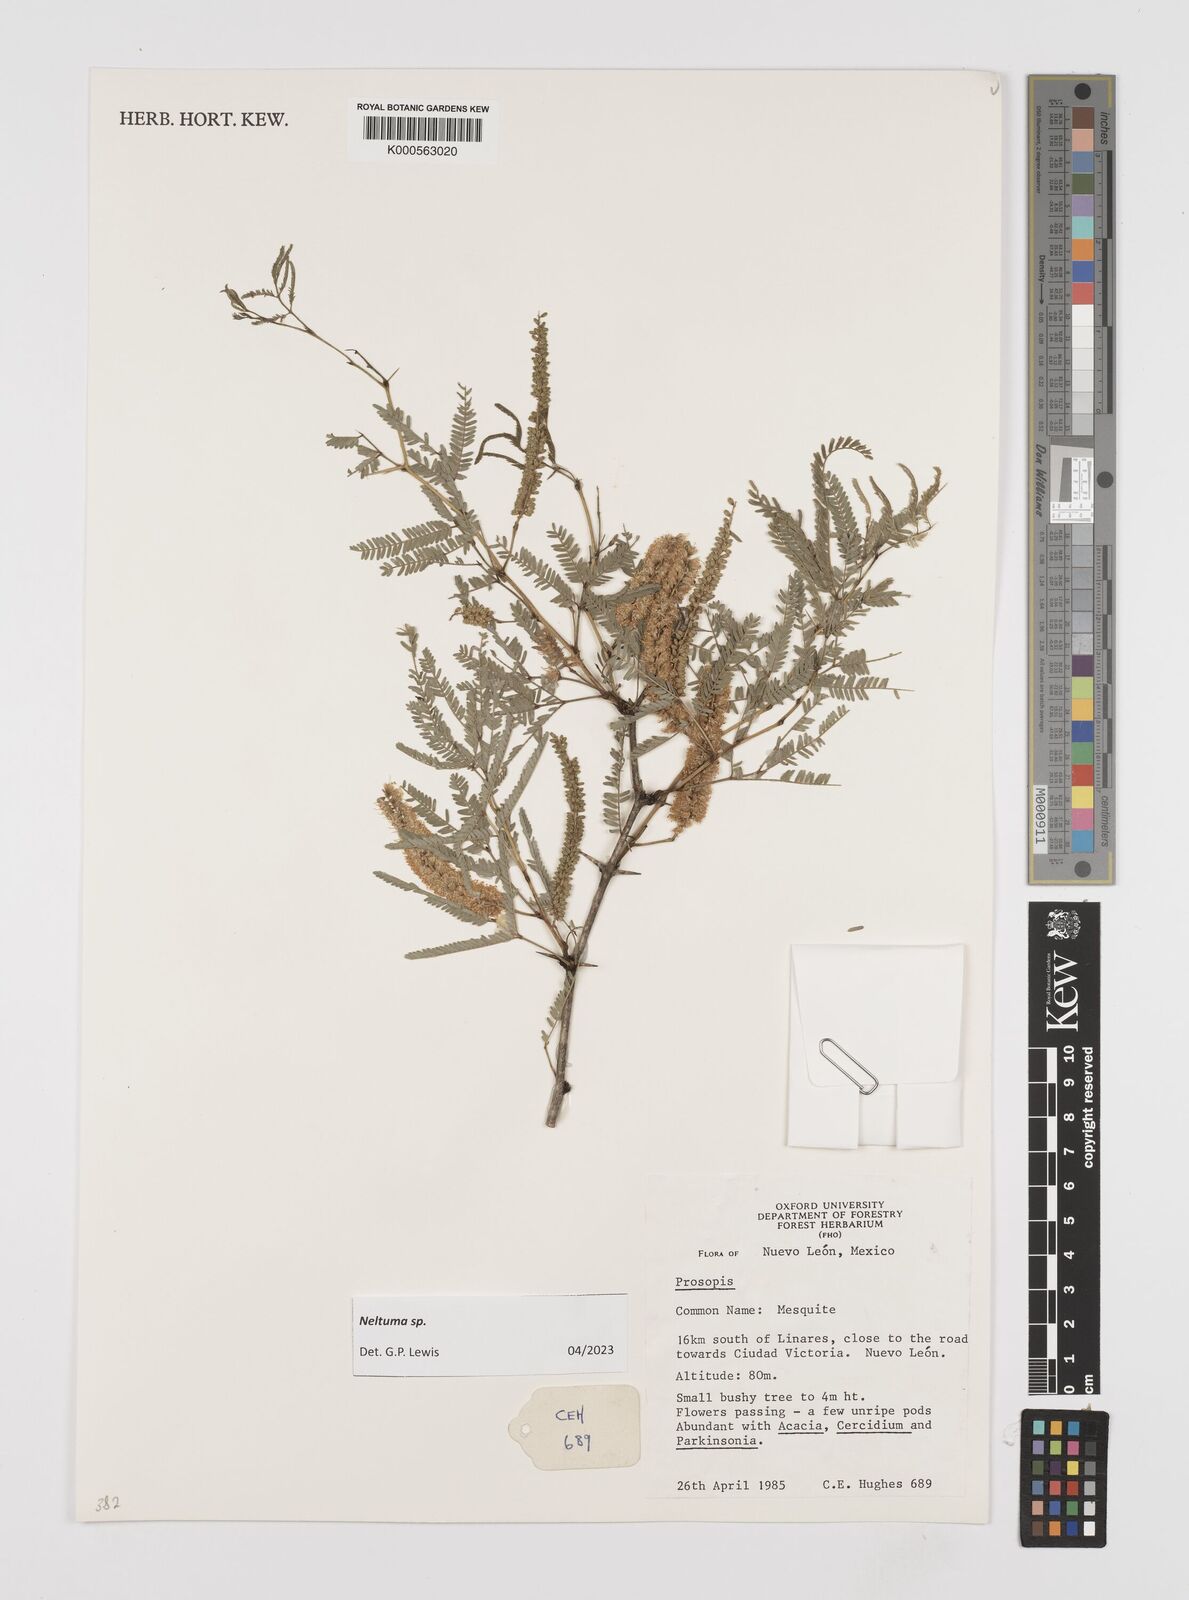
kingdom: Plantae
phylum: Tracheophyta
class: Magnoliopsida
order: Fabales
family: Fabaceae
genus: Prosopis
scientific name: Prosopis
